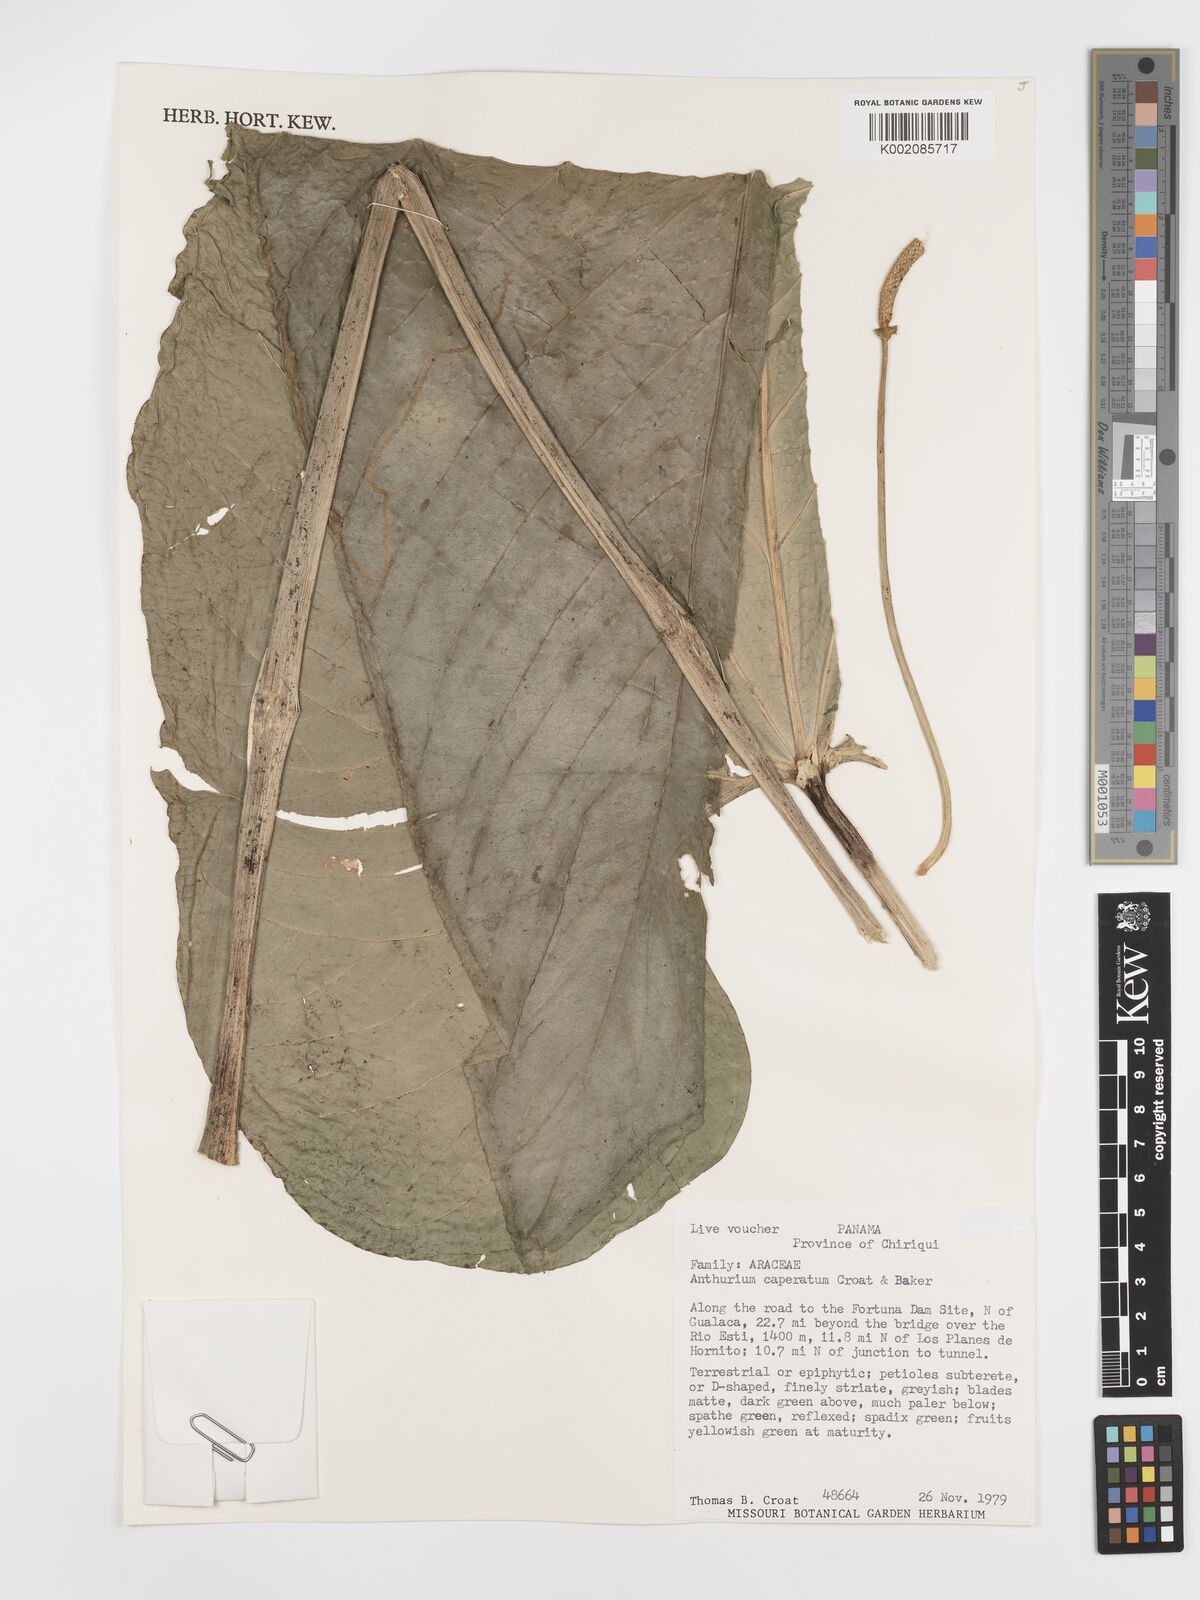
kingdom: Plantae
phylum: Tracheophyta
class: Liliopsida
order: Alismatales
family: Araceae
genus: Anthurium
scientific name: Anthurium caperatum
